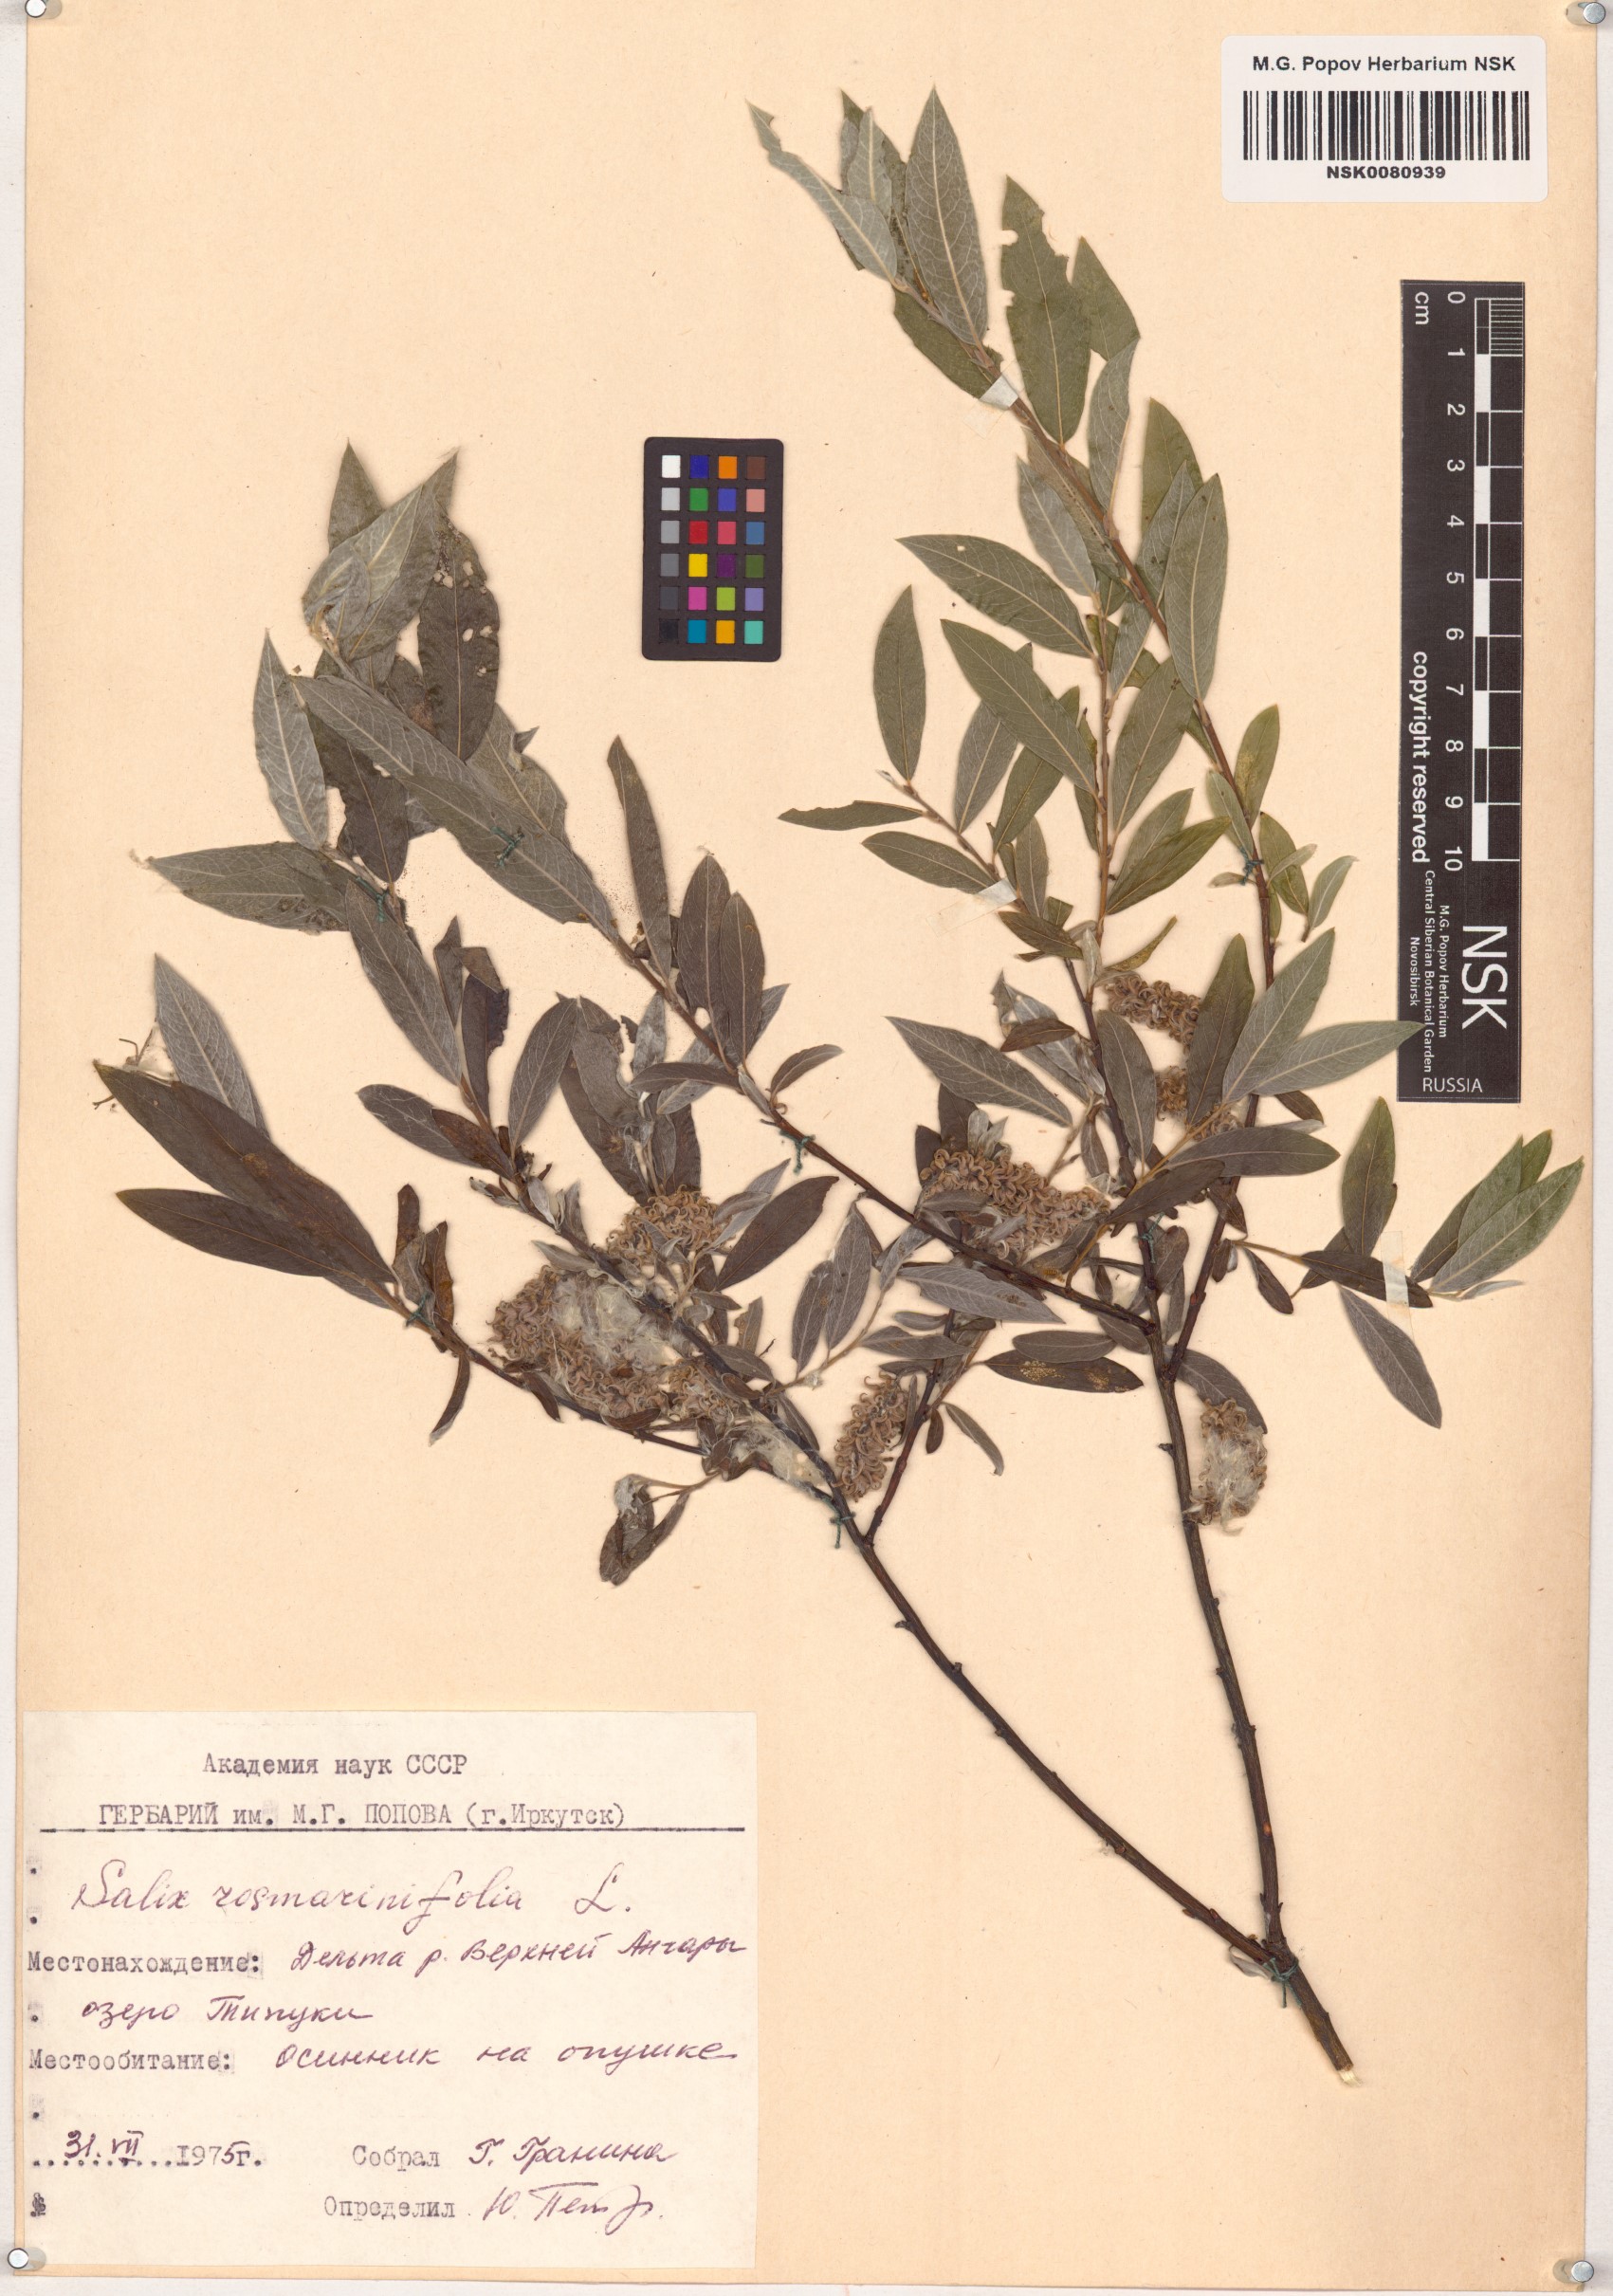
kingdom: Plantae
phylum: Tracheophyta
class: Magnoliopsida
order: Malpighiales
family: Salicaceae
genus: Salix
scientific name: Salix rosmarinifolia
